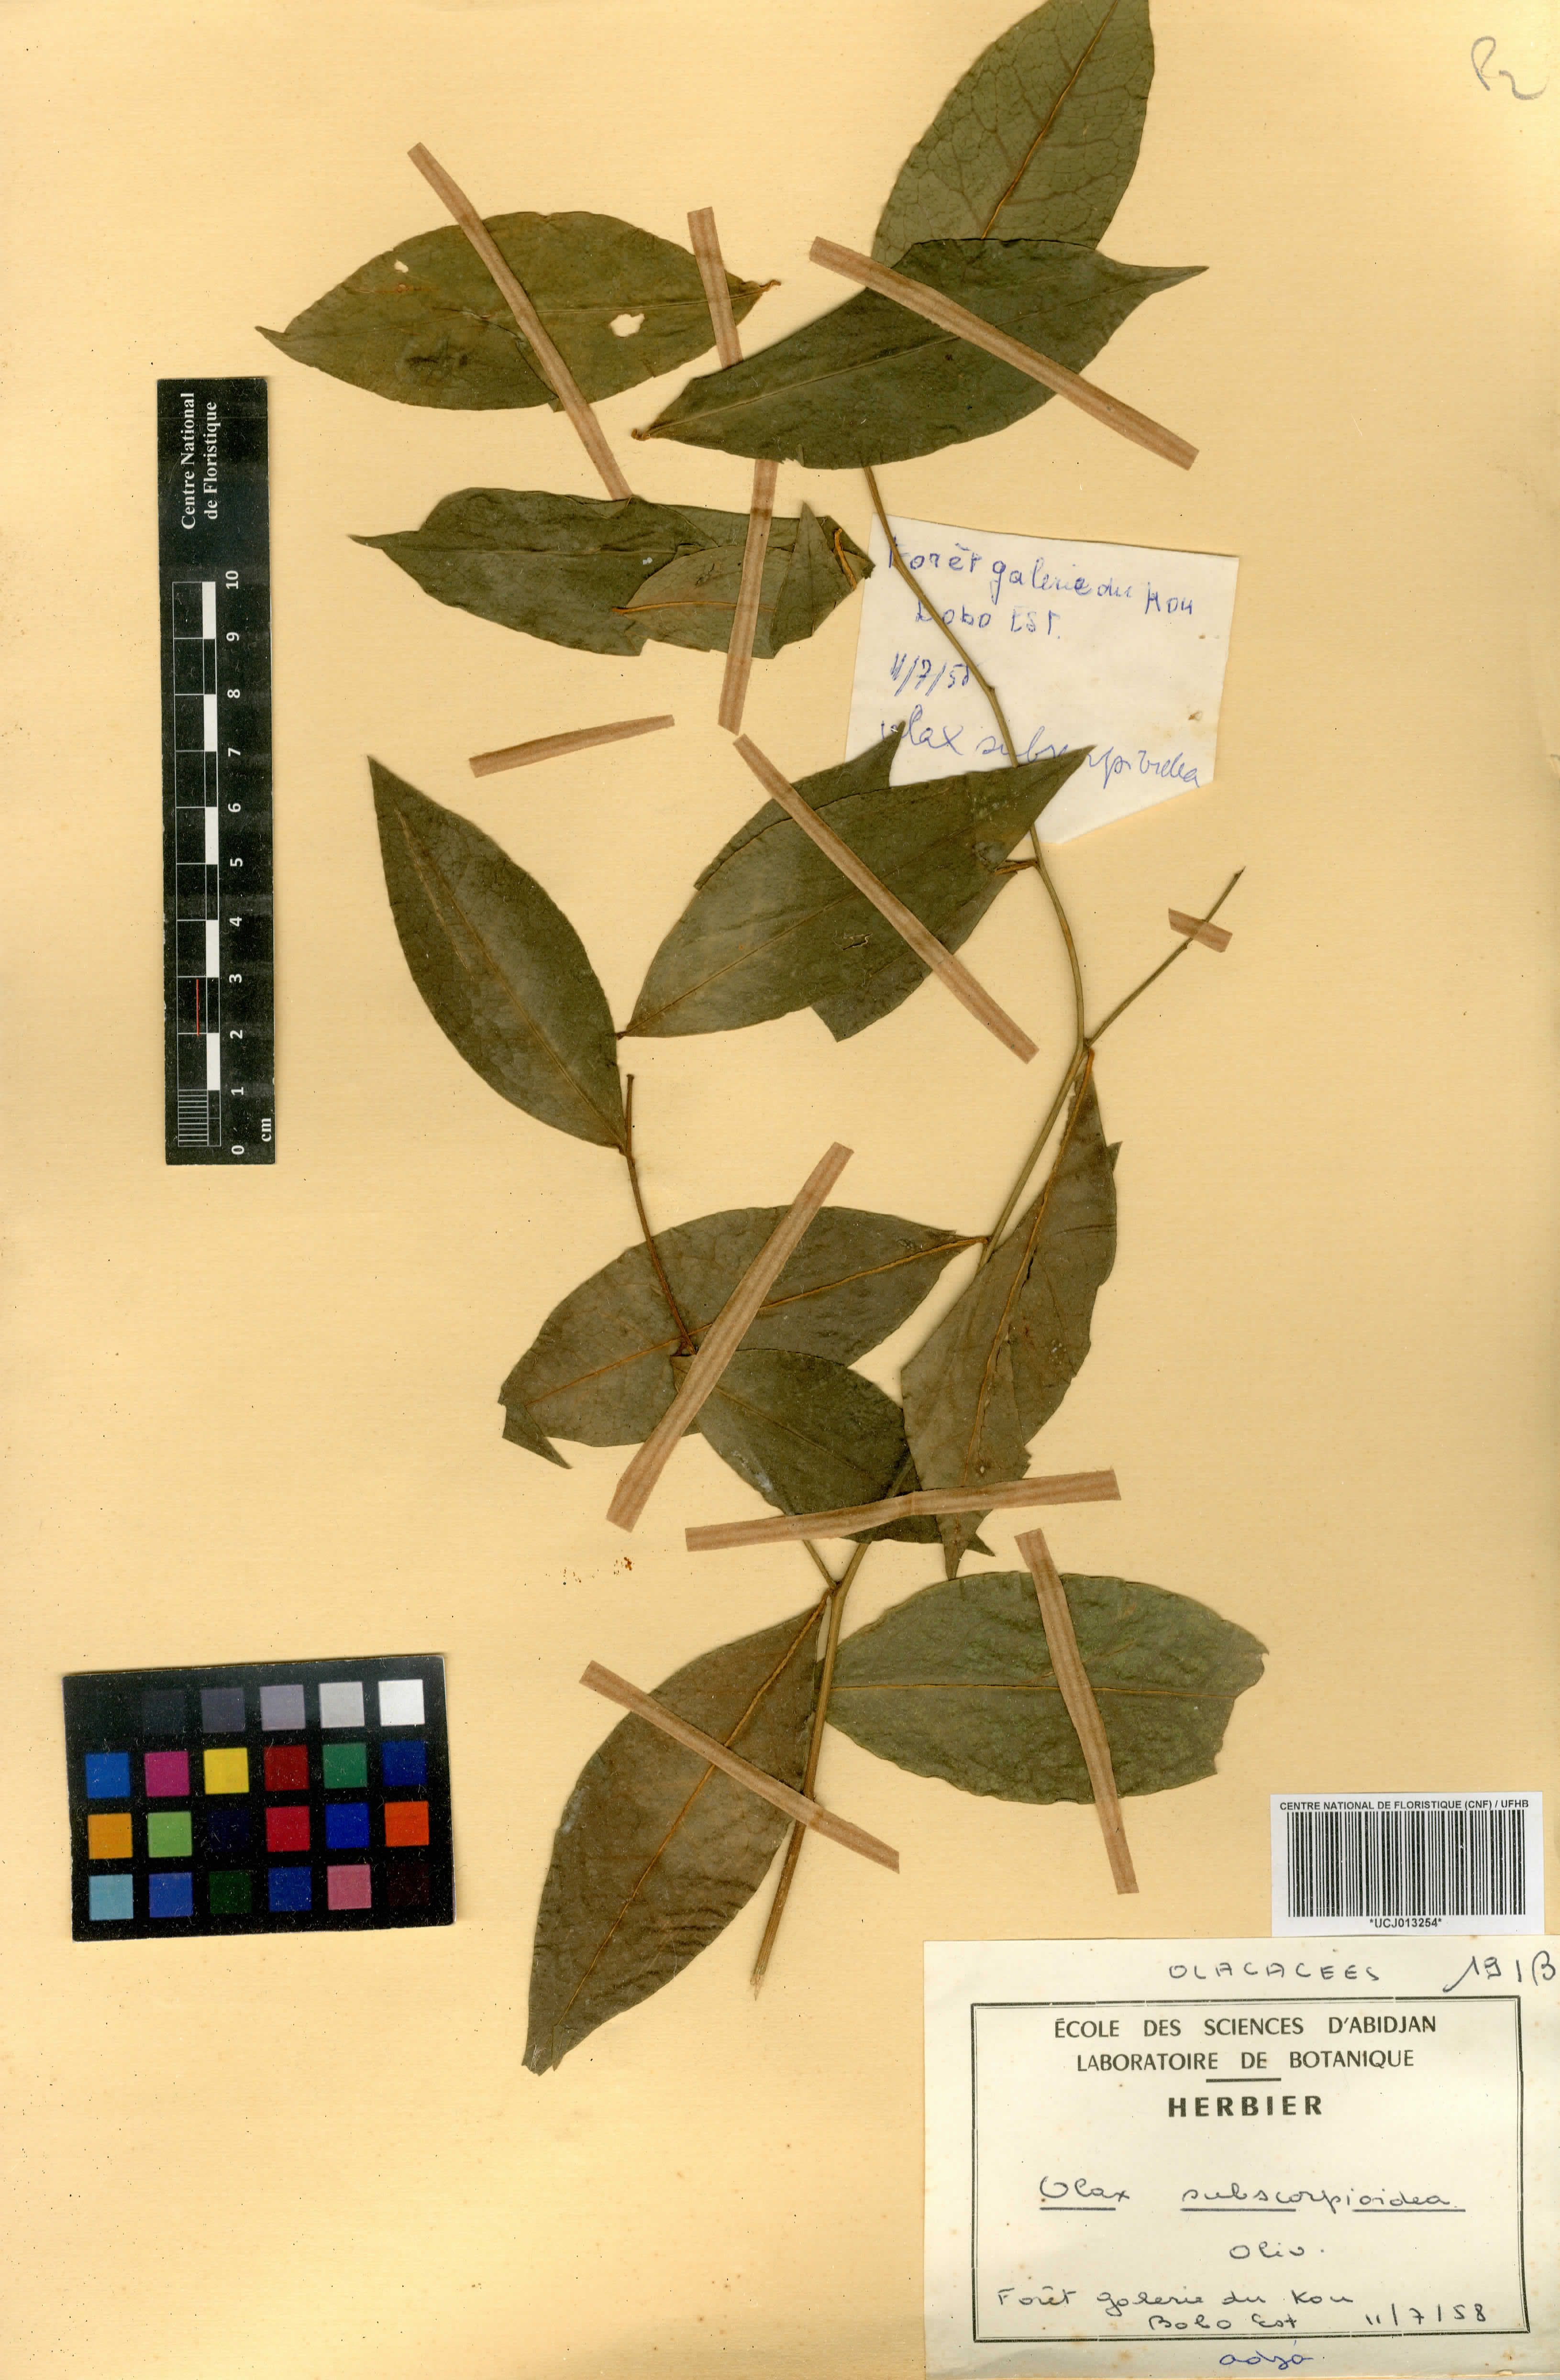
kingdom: Plantae
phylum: Tracheophyta
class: Magnoliopsida
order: Santalales
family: Olacaceae
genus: Olax
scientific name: Olax subscorpioides
